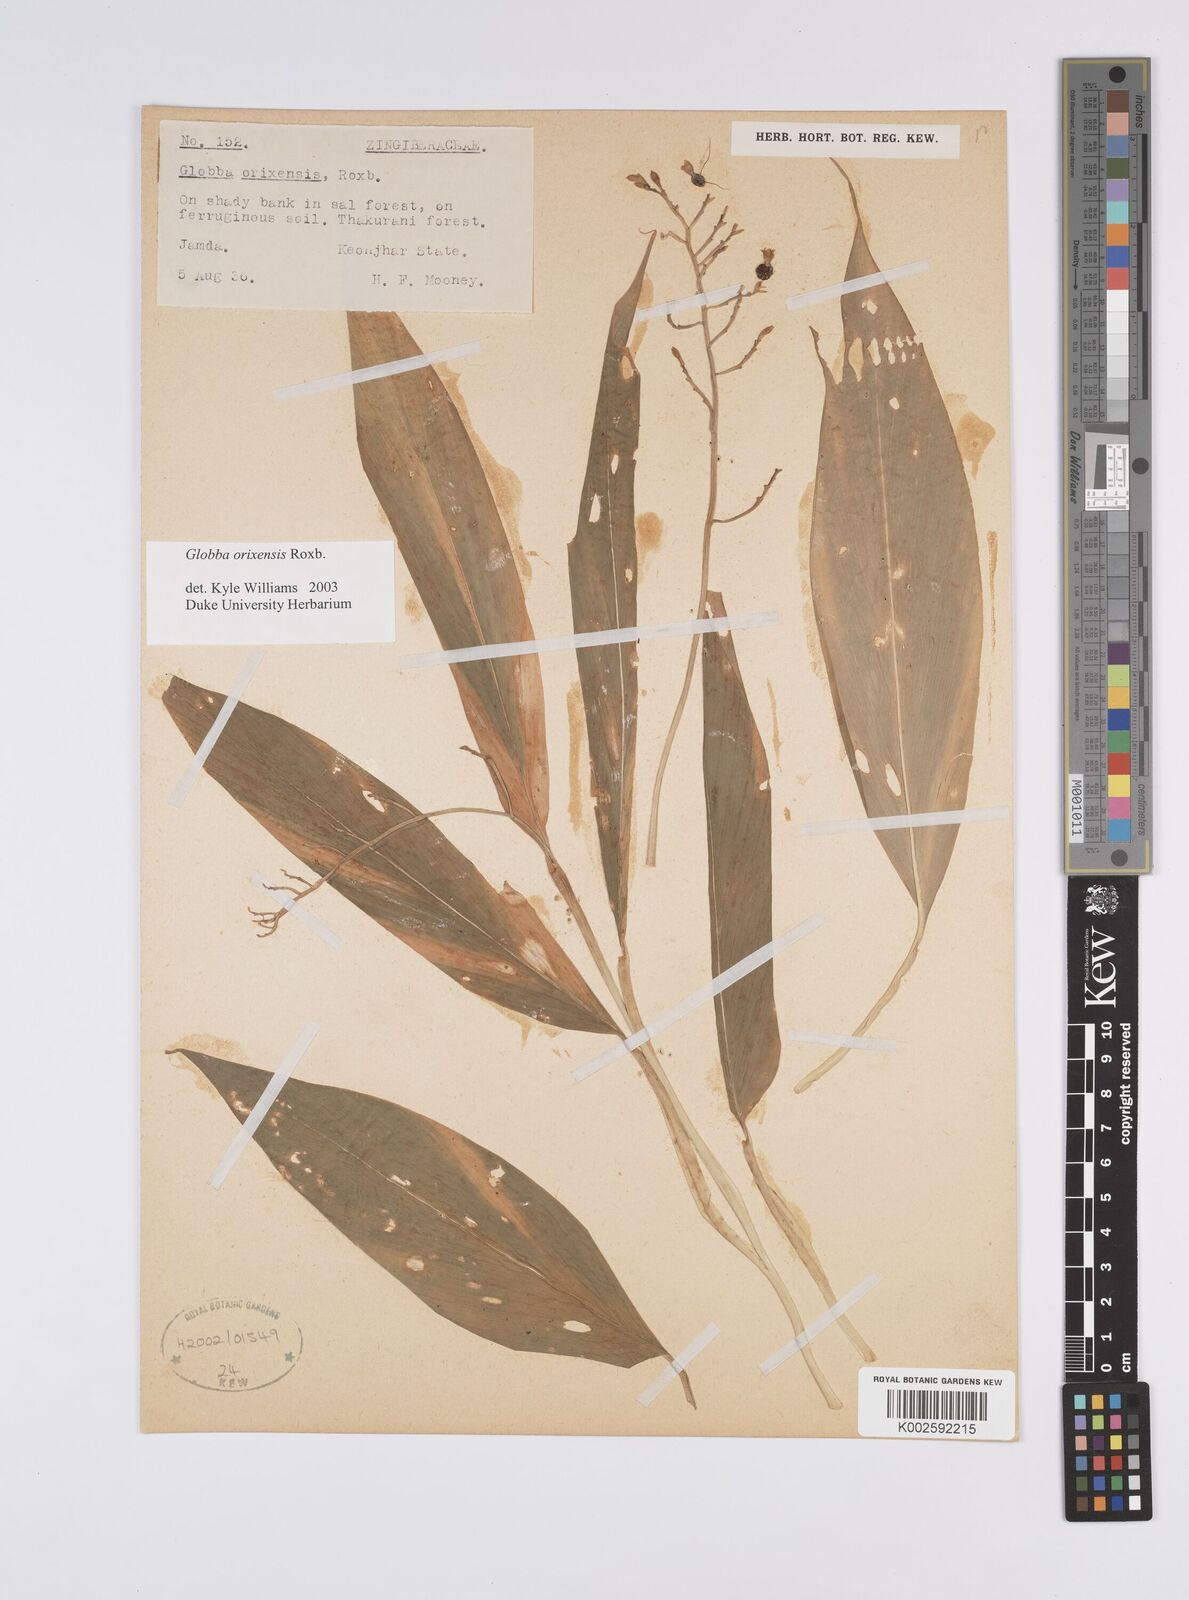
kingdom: Plantae
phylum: Tracheophyta
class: Liliopsida
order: Zingiberales
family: Zingiberaceae
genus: Globba
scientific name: Globba orixensis
